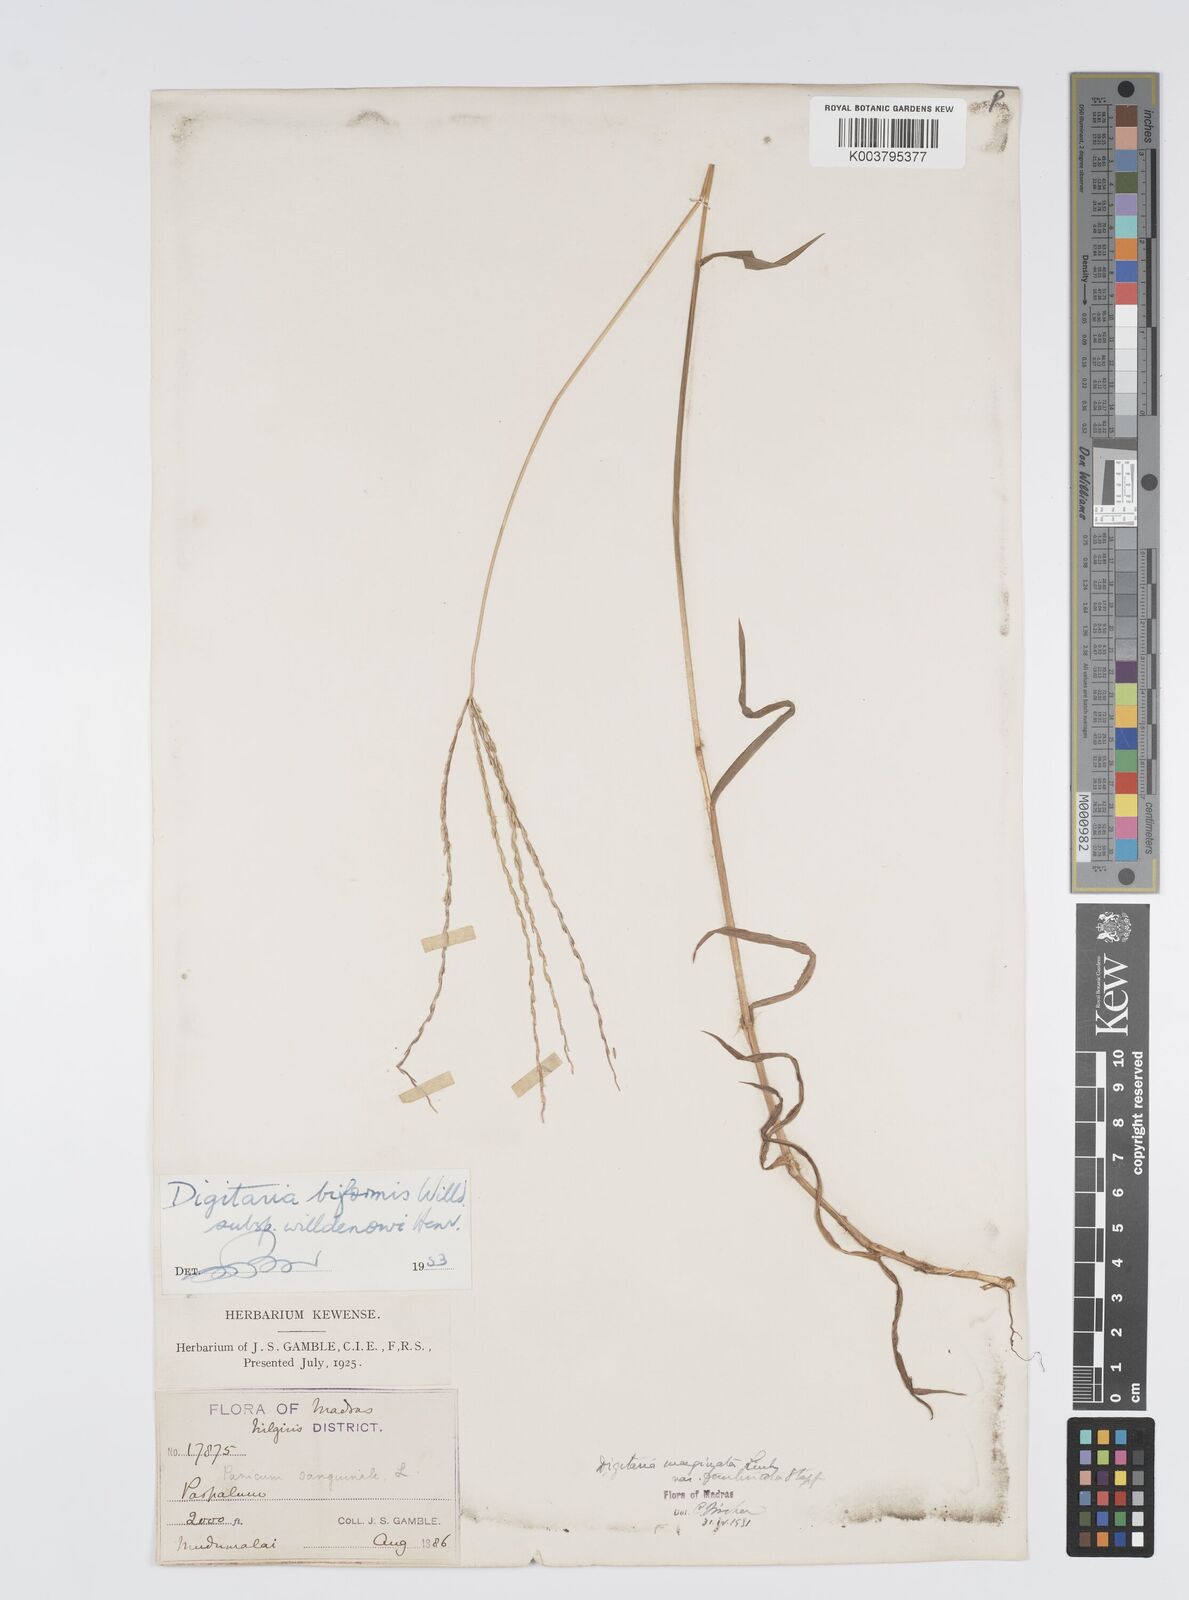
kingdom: Plantae
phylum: Tracheophyta
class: Liliopsida
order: Poales
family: Poaceae
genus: Digitaria
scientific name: Digitaria ciliaris
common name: Tropical finger-grass
